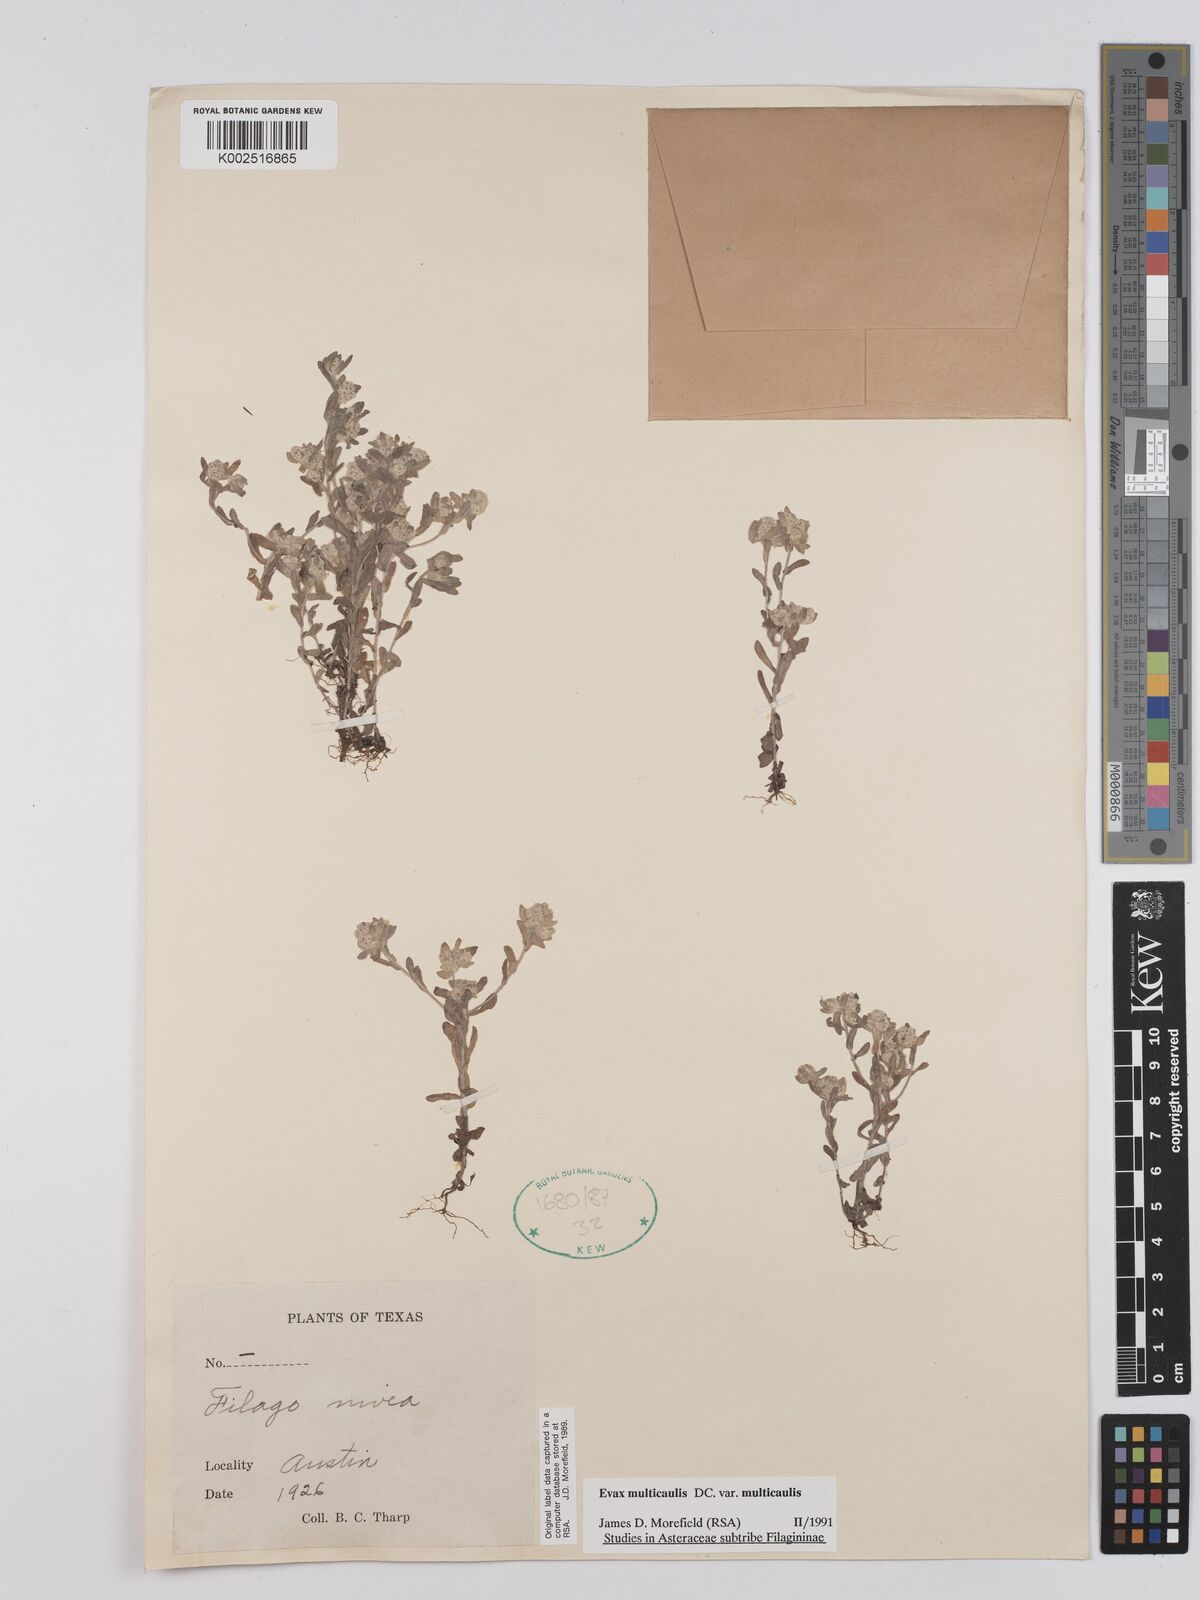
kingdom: Plantae
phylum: Tracheophyta
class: Magnoliopsida
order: Asterales
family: Asteraceae
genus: Filago
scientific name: Filago
